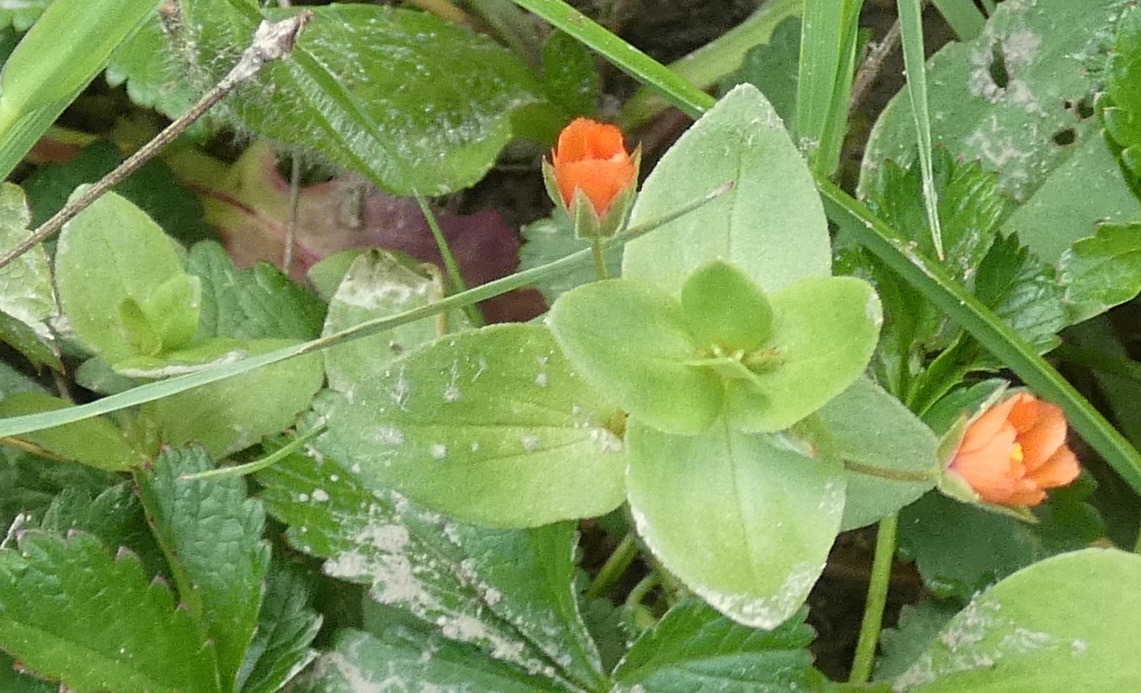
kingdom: Plantae
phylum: Tracheophyta
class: Magnoliopsida
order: Ericales
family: Primulaceae
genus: Lysimachia
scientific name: Lysimachia arvensis
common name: Rød arve
